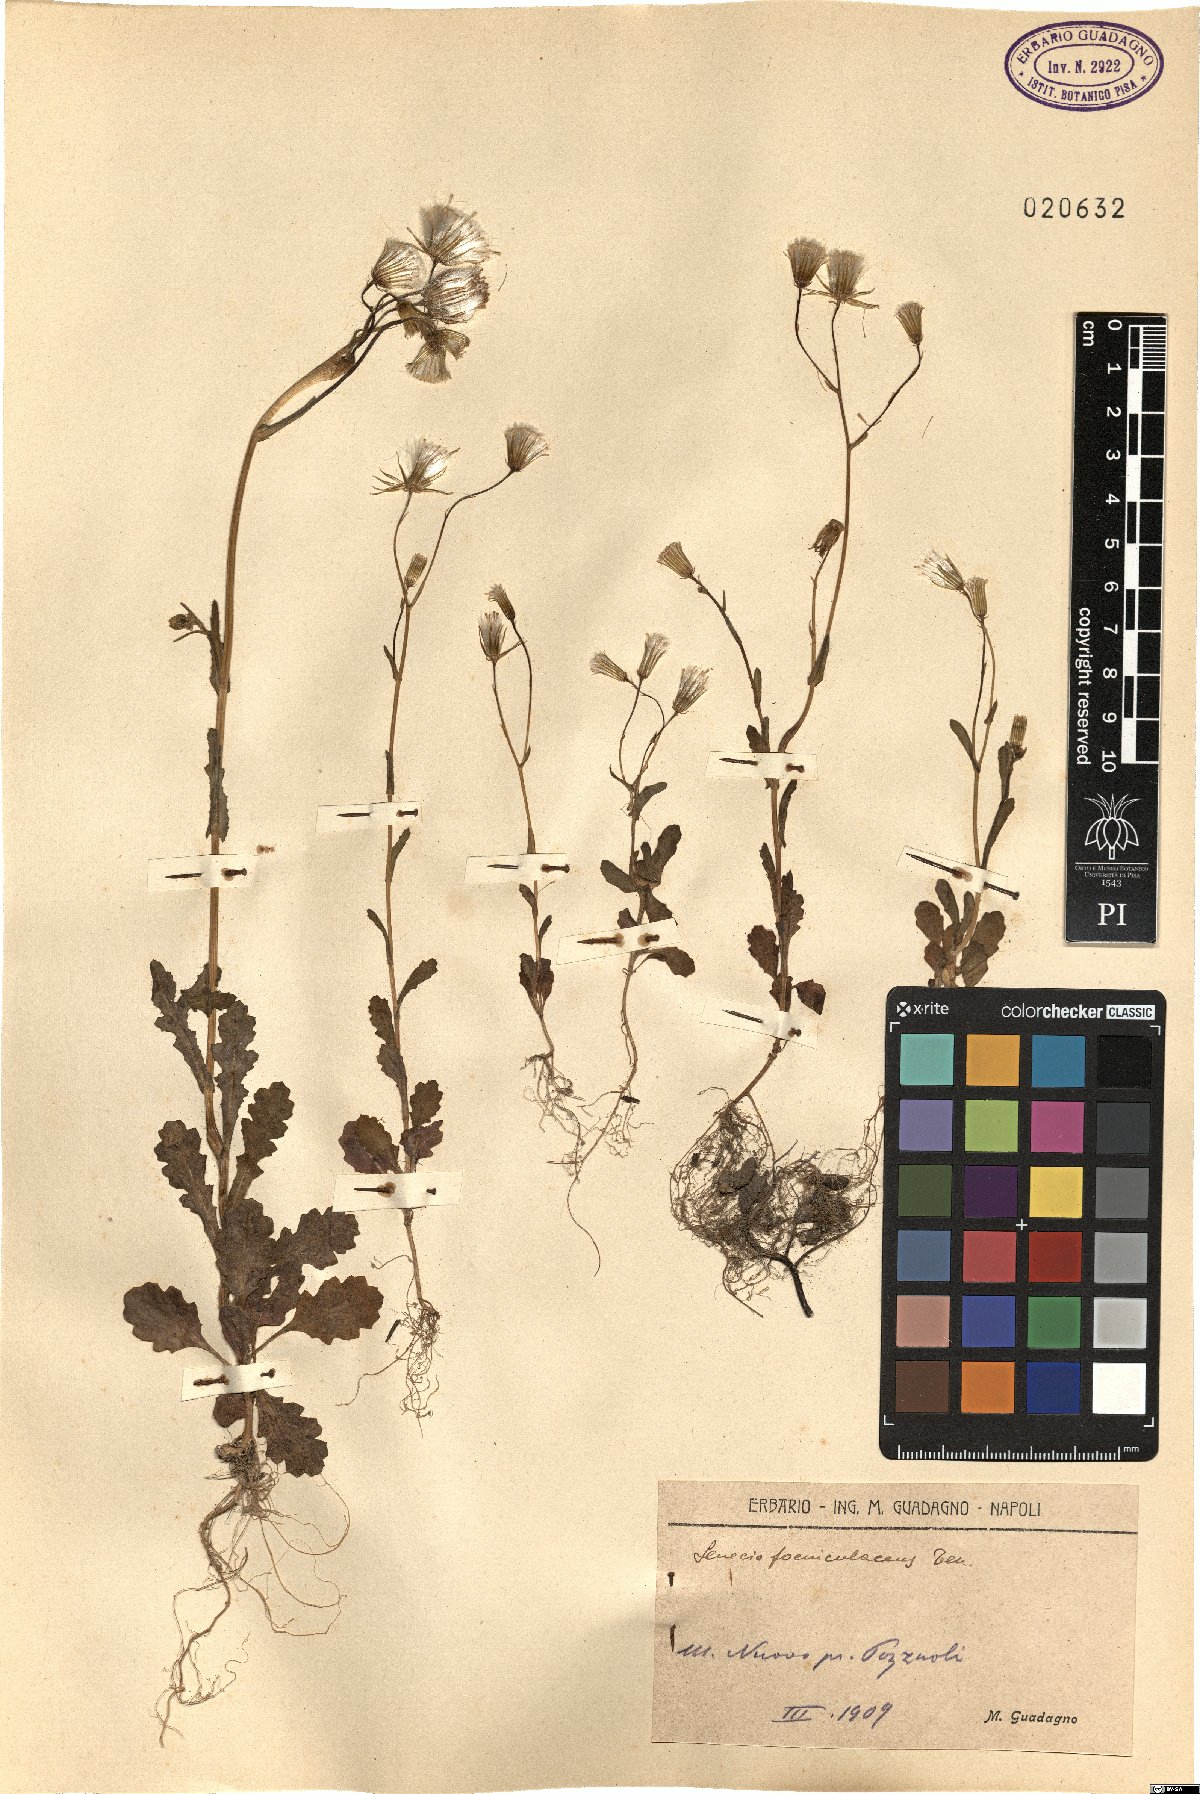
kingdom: Plantae
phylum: Tracheophyta
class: Magnoliopsida
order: Asterales
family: Asteraceae
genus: Senecio
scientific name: Senecio lividus
